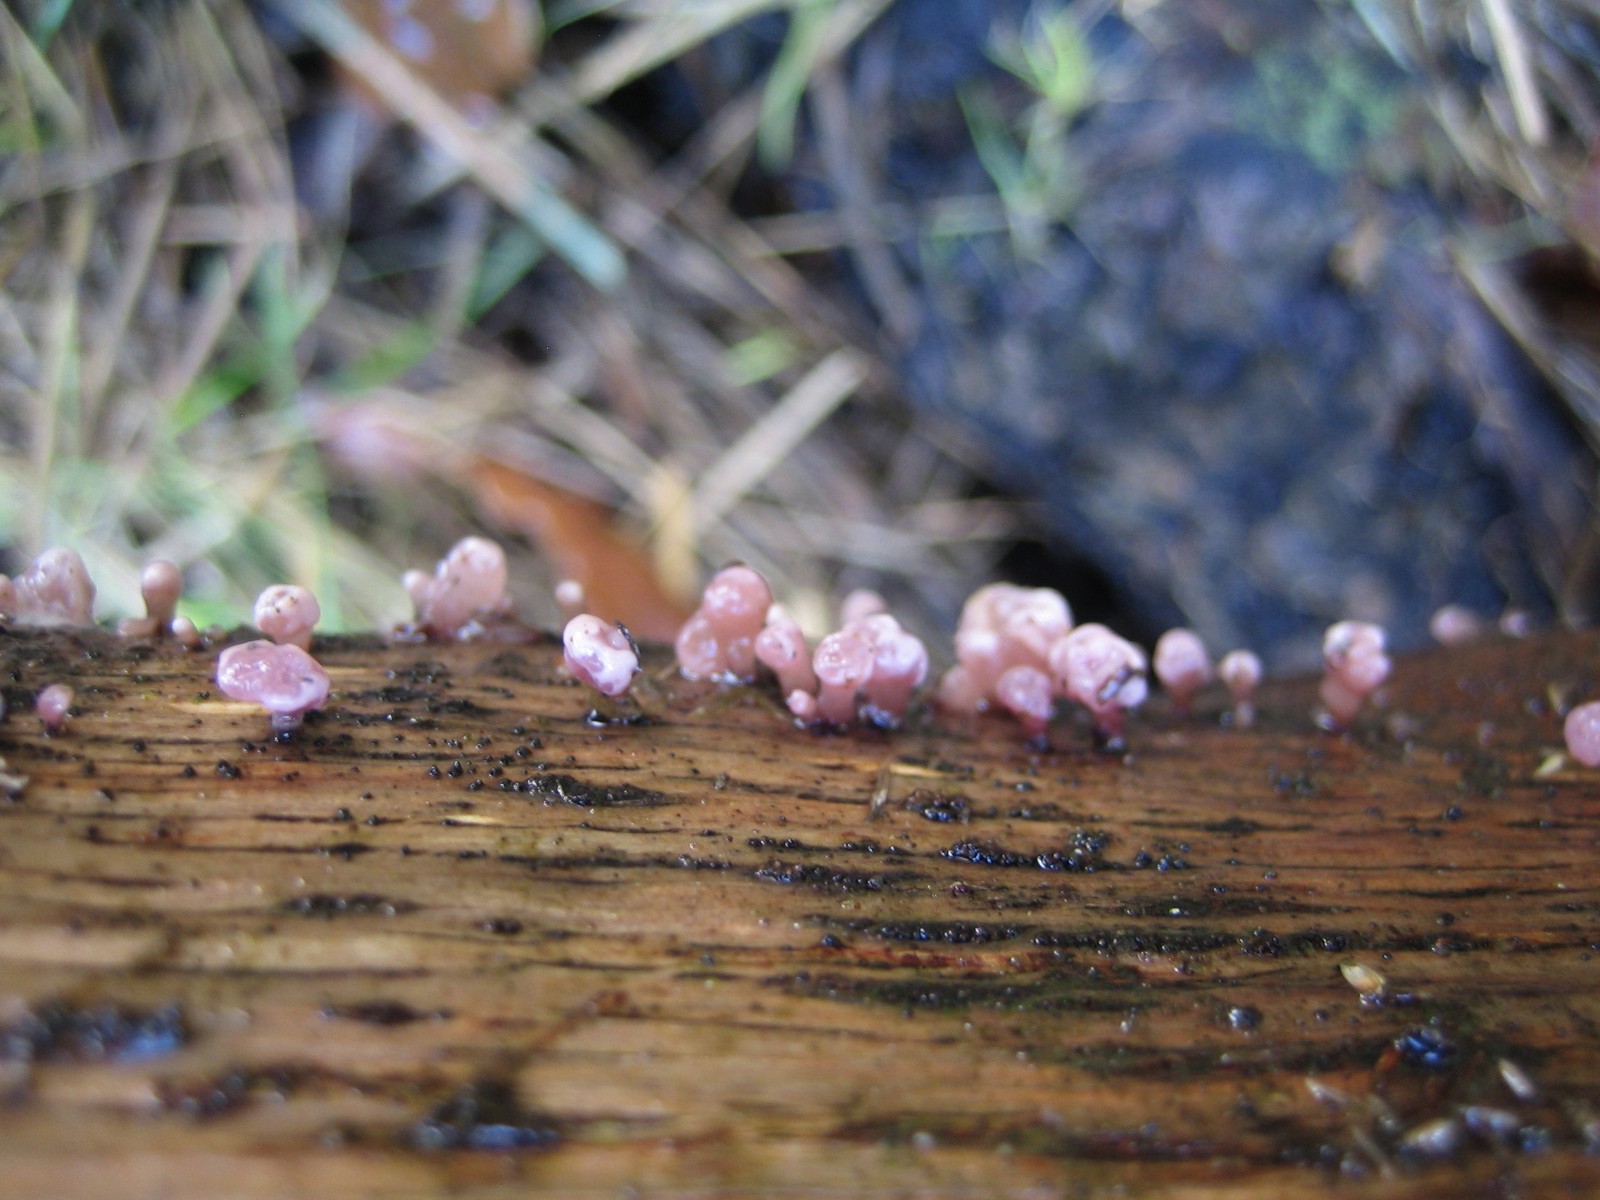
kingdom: Fungi
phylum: Ascomycota
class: Leotiomycetes
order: Helotiales
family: Gelatinodiscaceae
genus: Ascocoryne
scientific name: Ascocoryne sarcoides
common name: rødlilla sejskive
